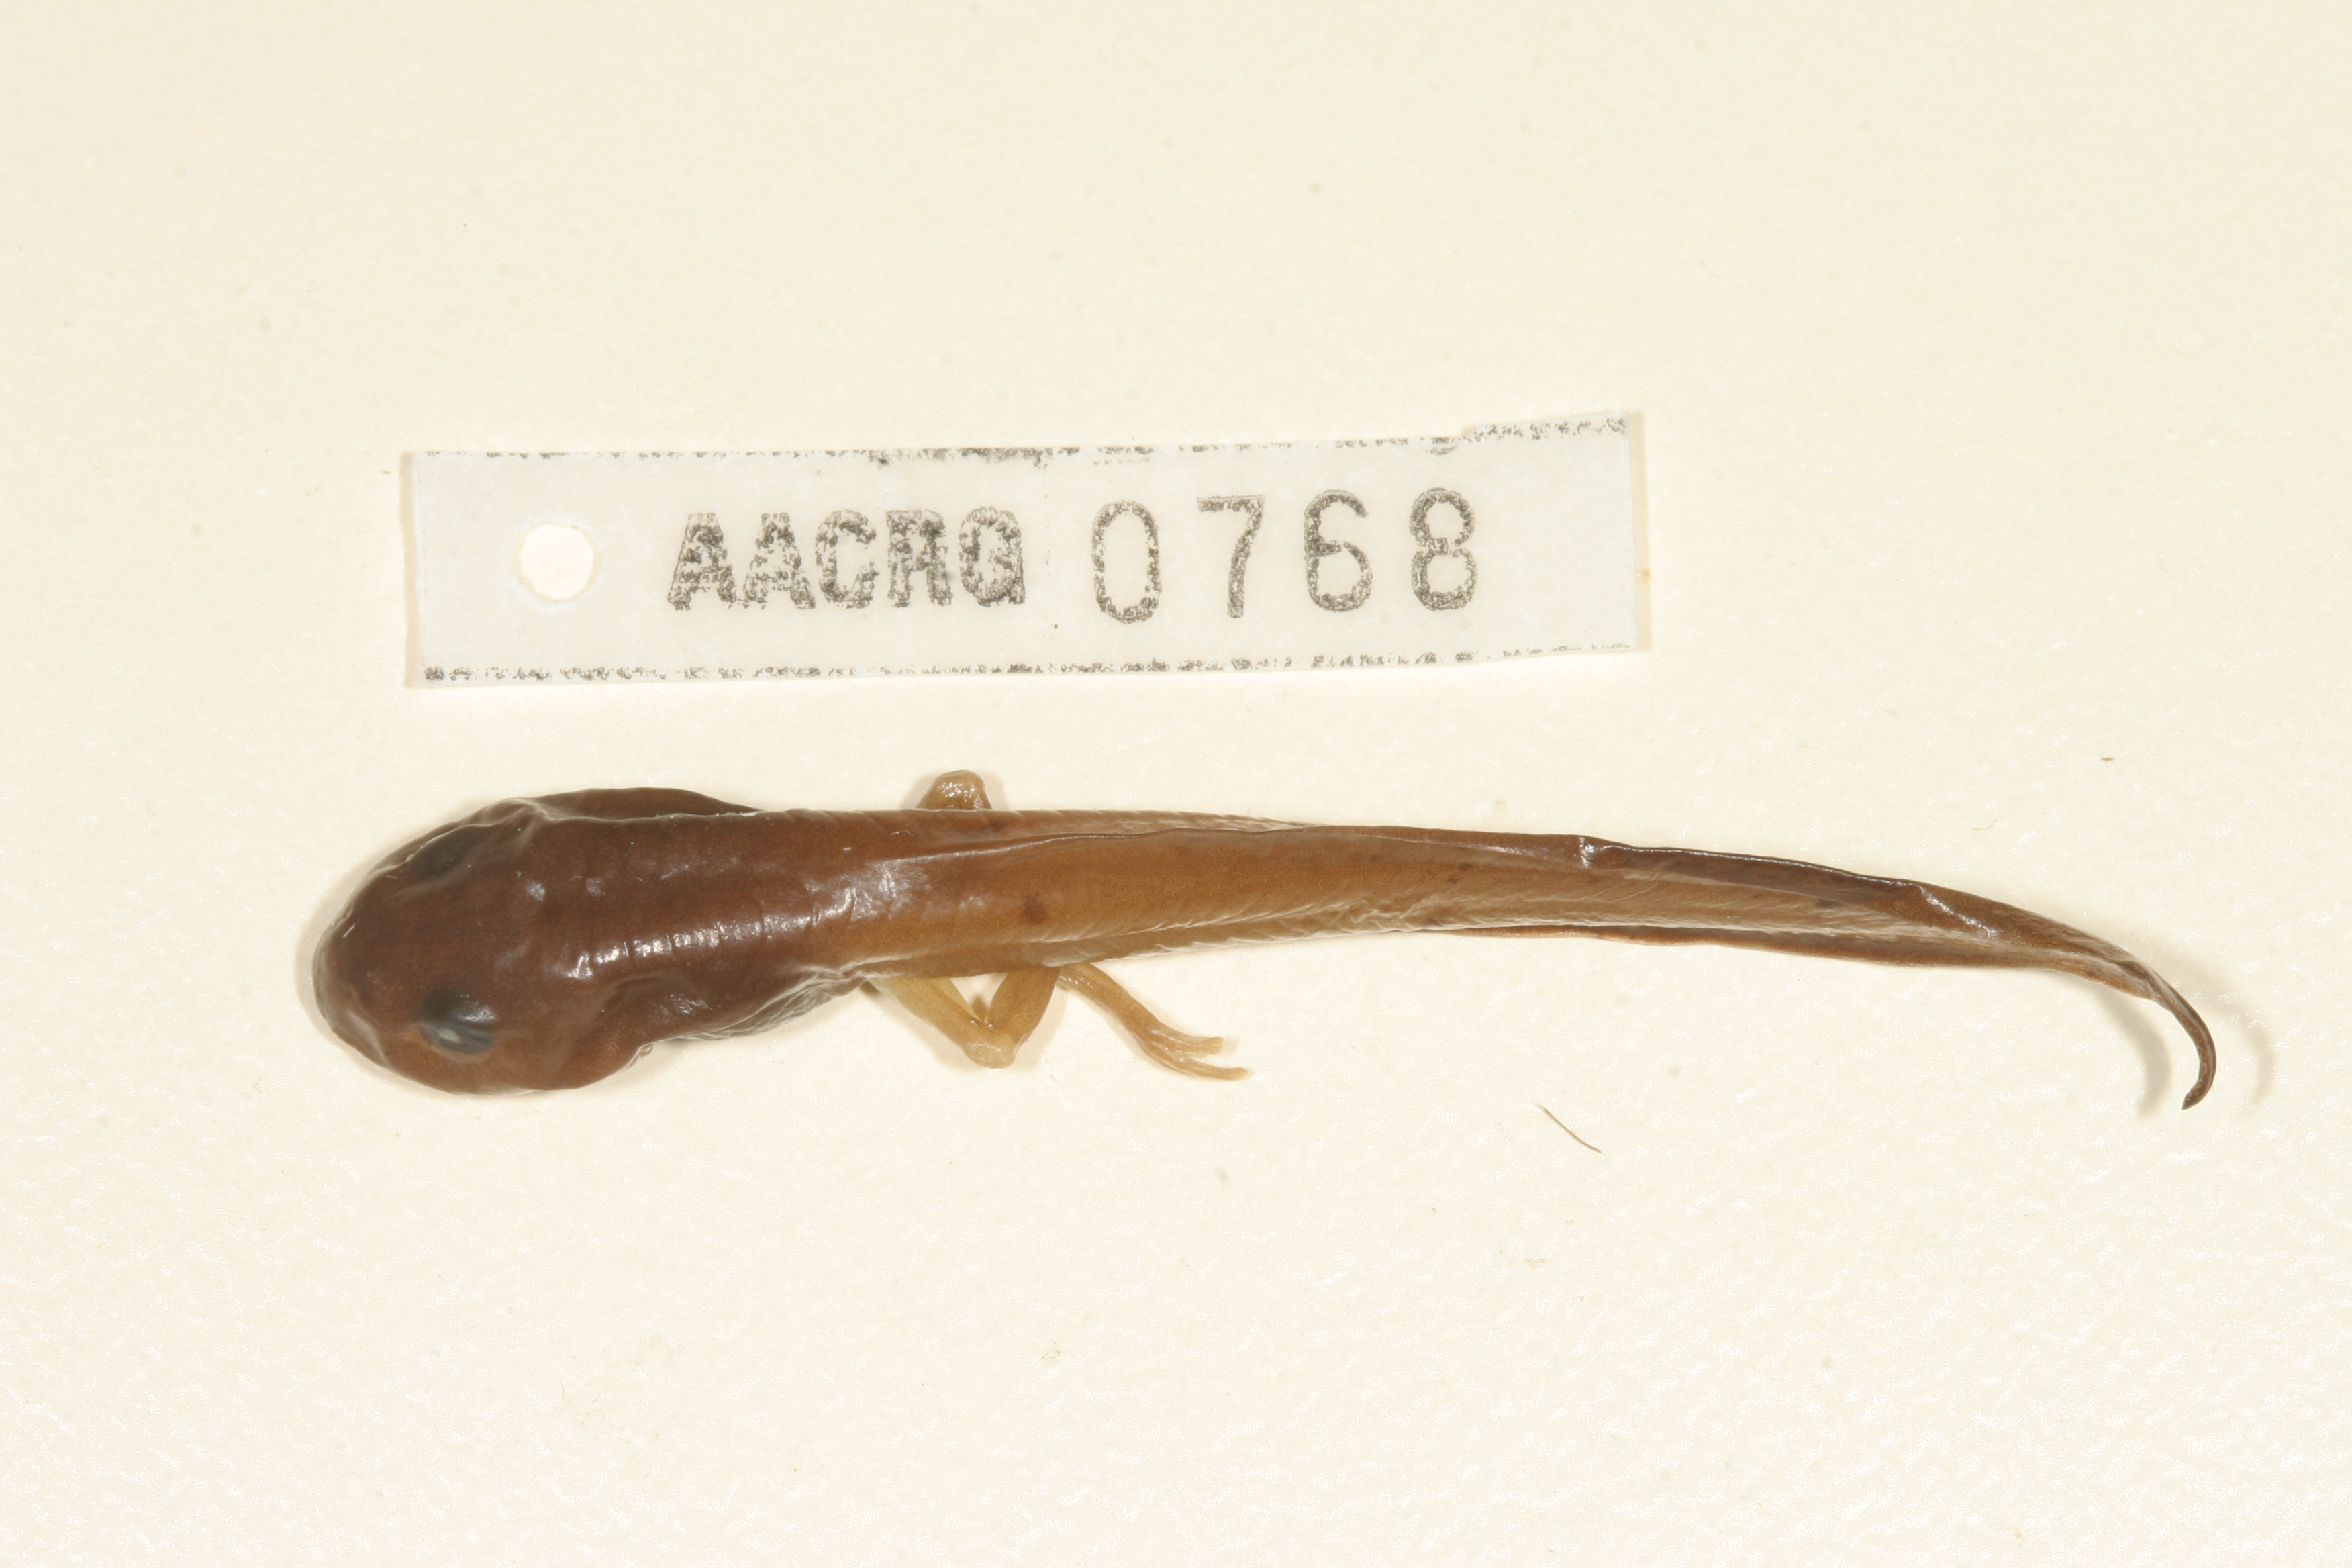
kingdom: Animalia
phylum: Chordata
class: Amphibia
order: Anura
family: Arthroleptidae
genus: Leptopelis
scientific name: Leptopelis mossambicus
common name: Mozambique tree frog
